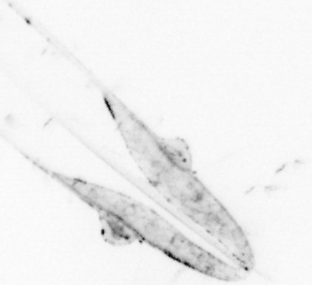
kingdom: Animalia
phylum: Chaetognatha
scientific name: Chaetognatha
